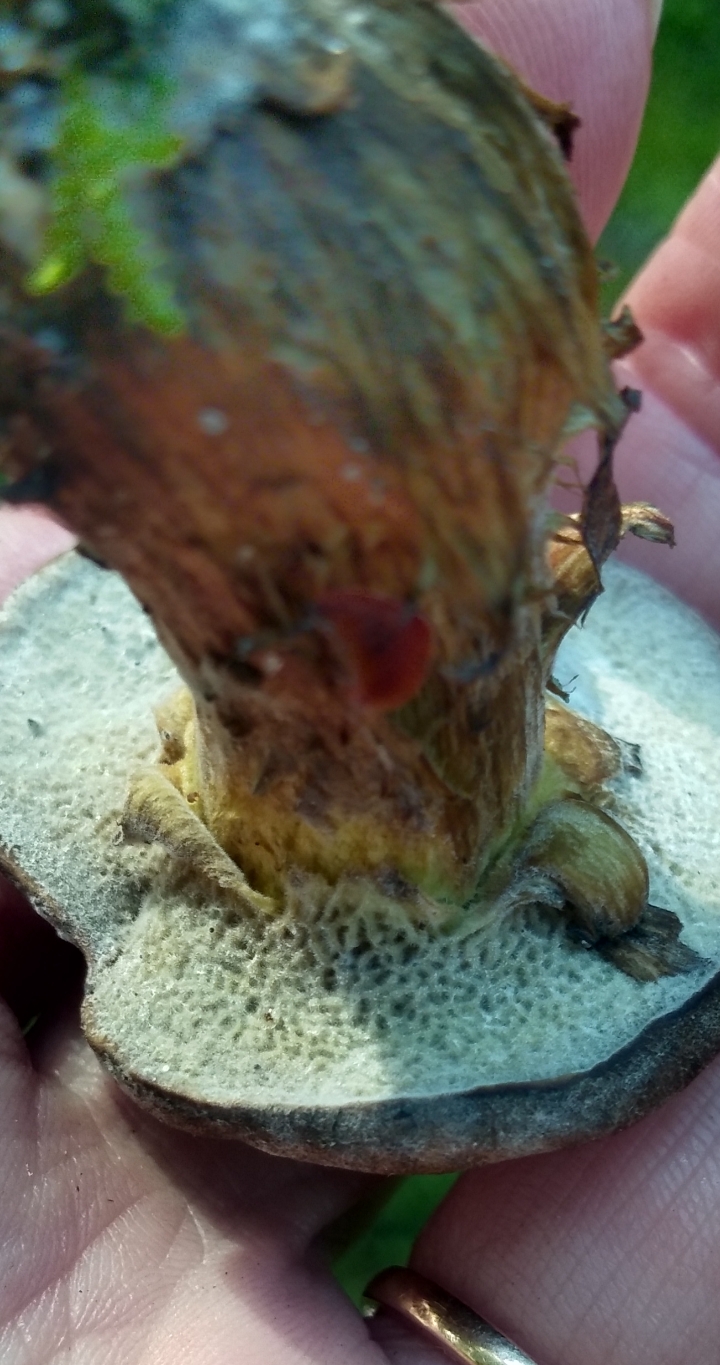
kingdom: Fungi
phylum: Ascomycota
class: Sordariomycetes
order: Hypocreales
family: Hypocreaceae
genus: Hypomyces
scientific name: Hypomyces
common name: snylteskorpe
